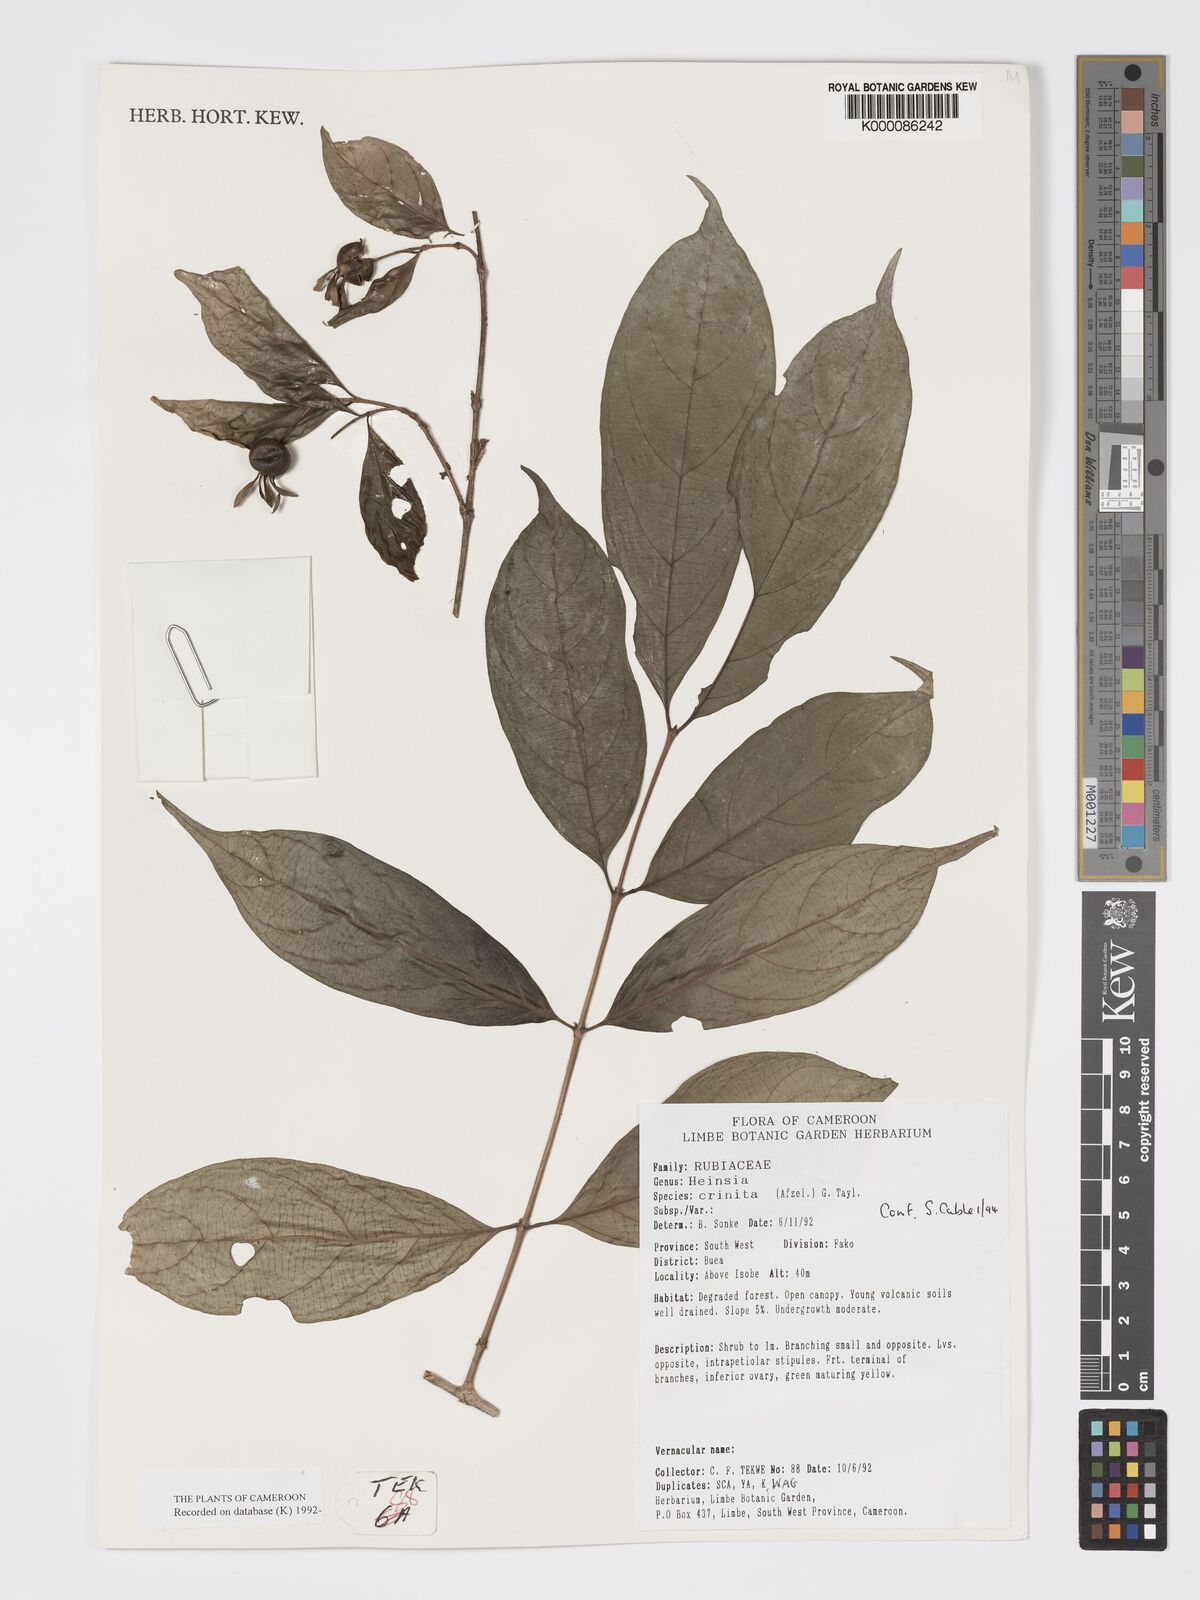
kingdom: Plantae
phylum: Tracheophyta
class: Magnoliopsida
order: Gentianales
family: Rubiaceae
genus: Heinsia
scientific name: Heinsia crinita
